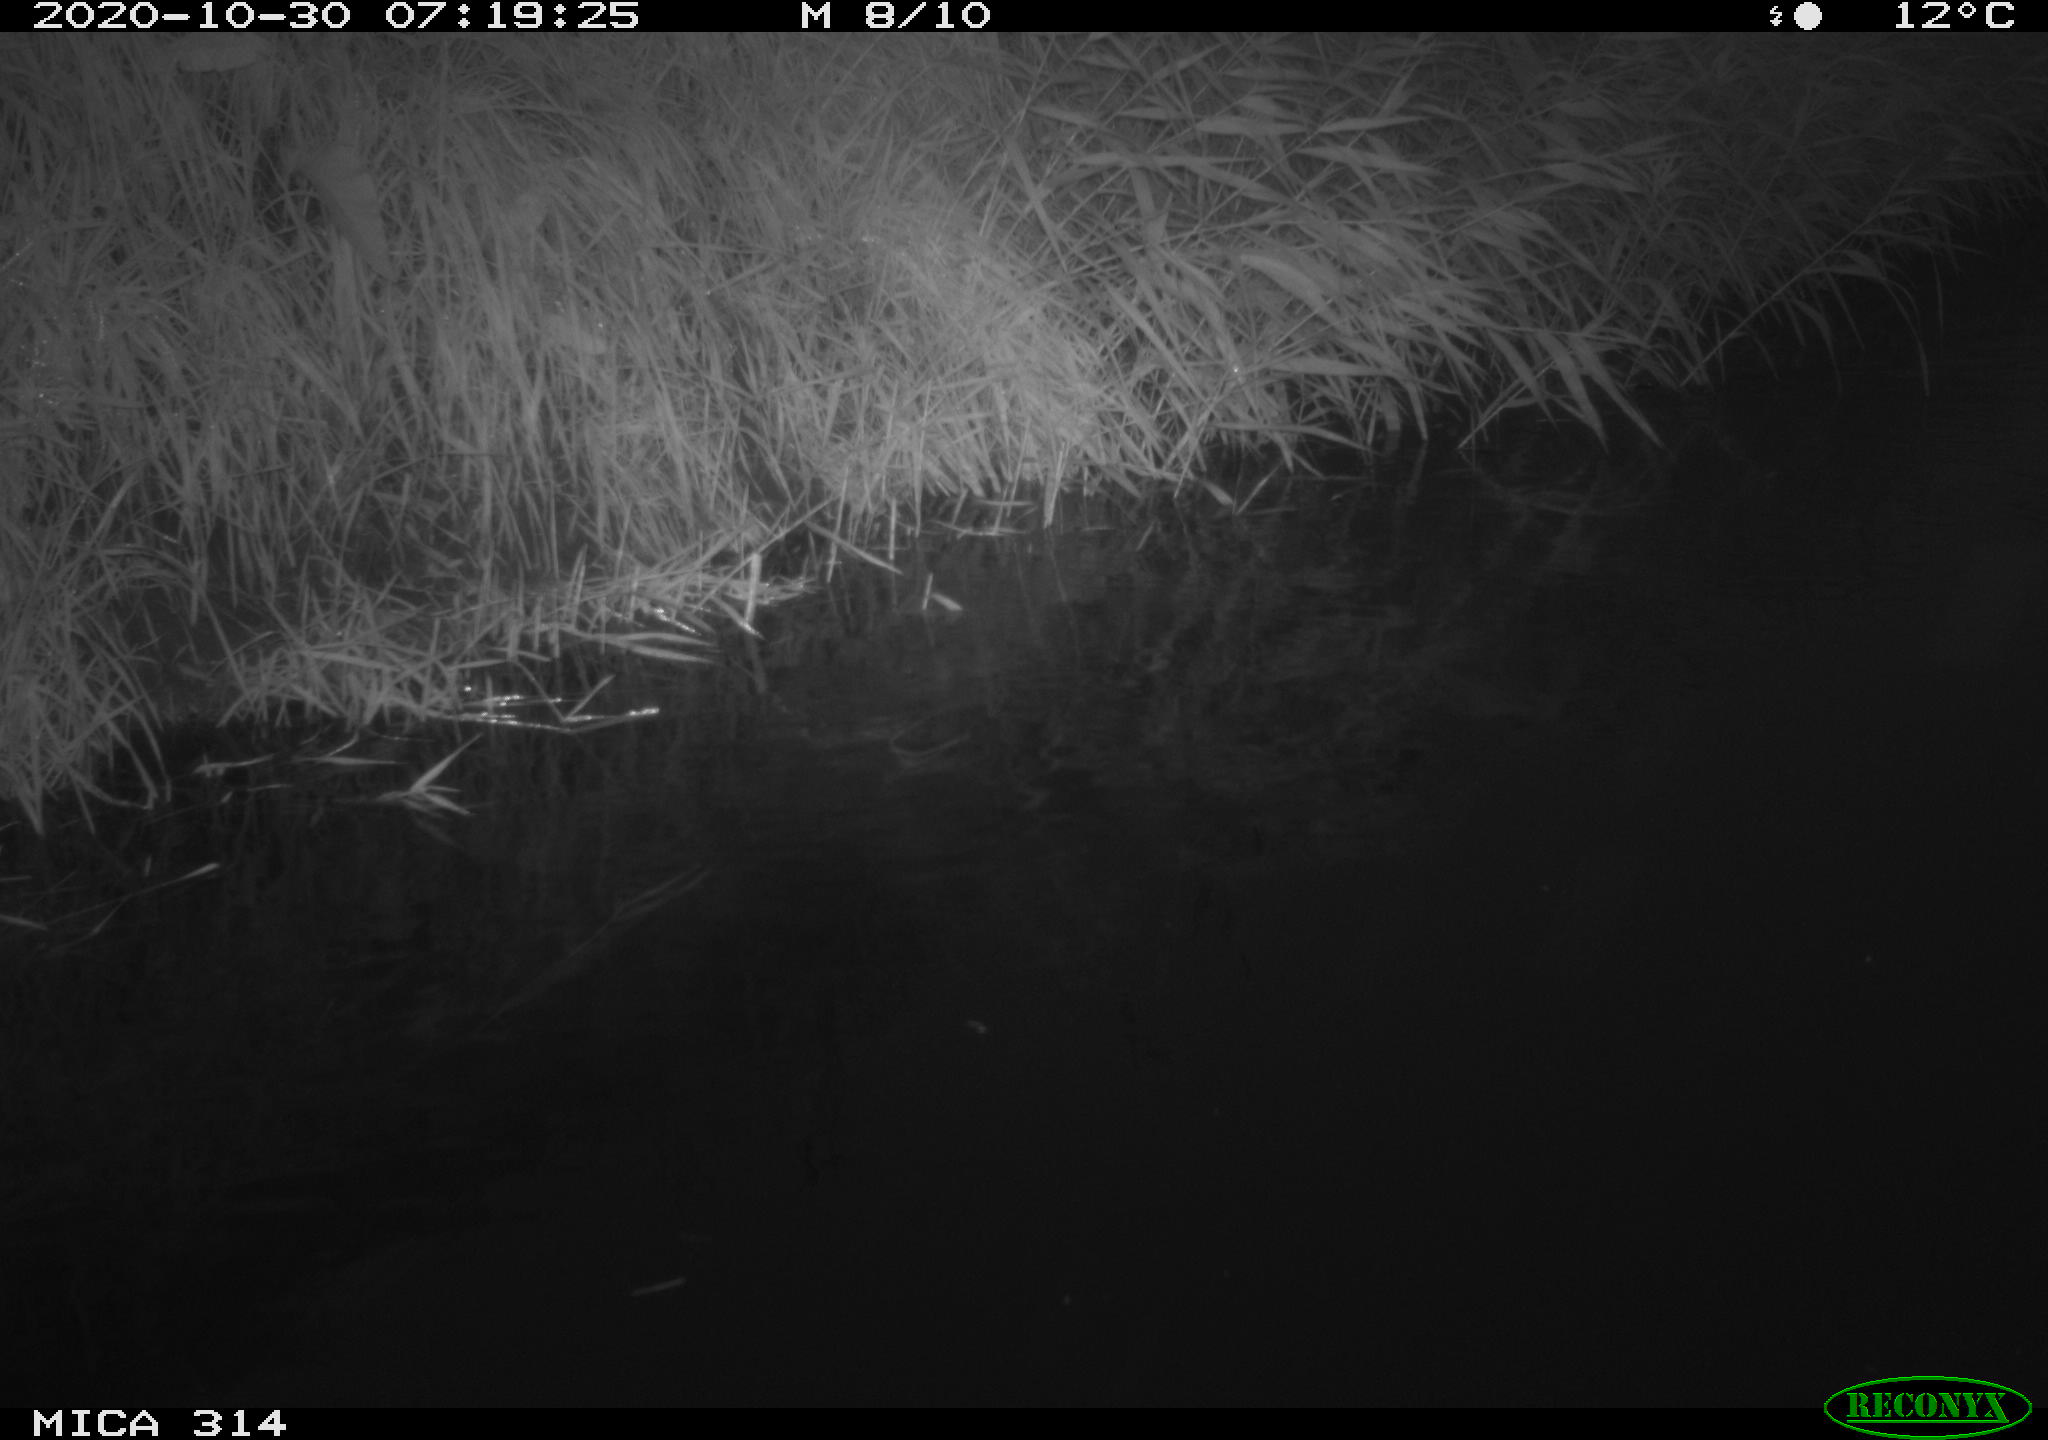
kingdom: Animalia
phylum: Chordata
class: Aves
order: Gruiformes
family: Rallidae
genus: Gallinula
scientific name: Gallinula chloropus
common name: Common moorhen
